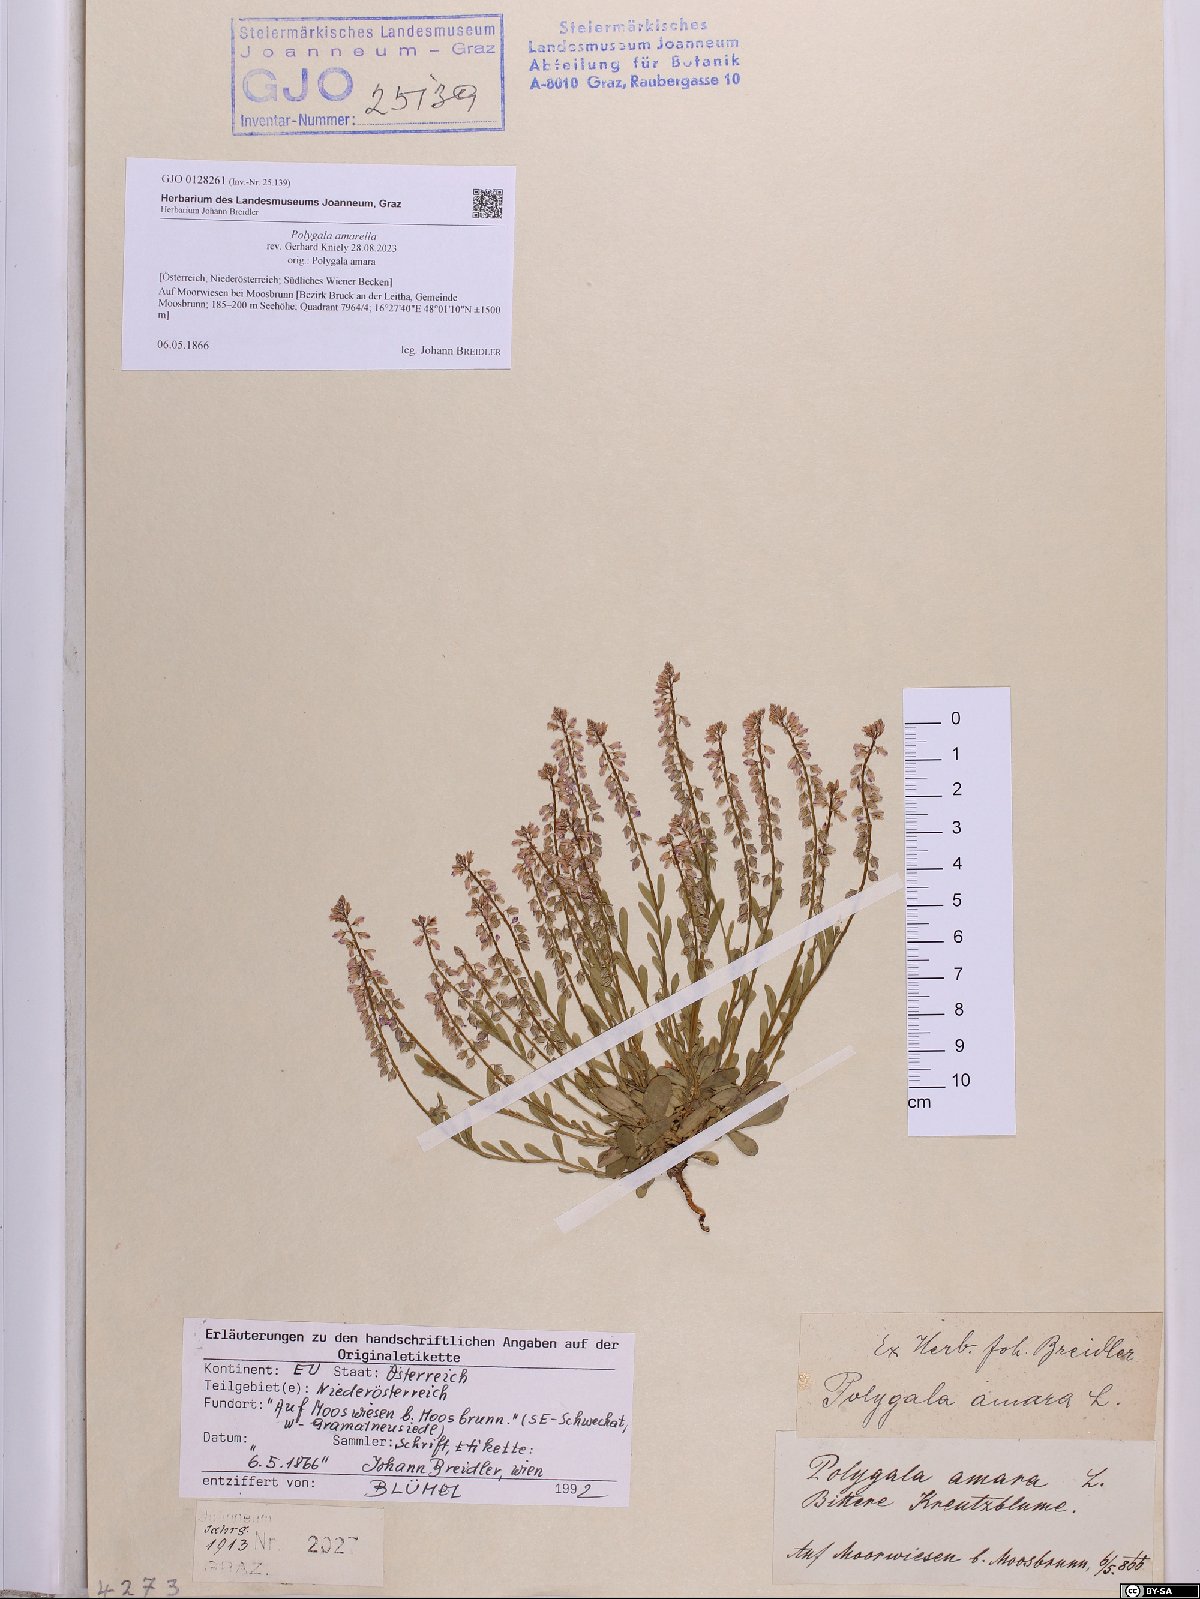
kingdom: Plantae
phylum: Tracheophyta
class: Magnoliopsida
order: Fabales
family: Polygalaceae
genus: Polygala
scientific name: Polygala amarella
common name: Dwarf milkwort
